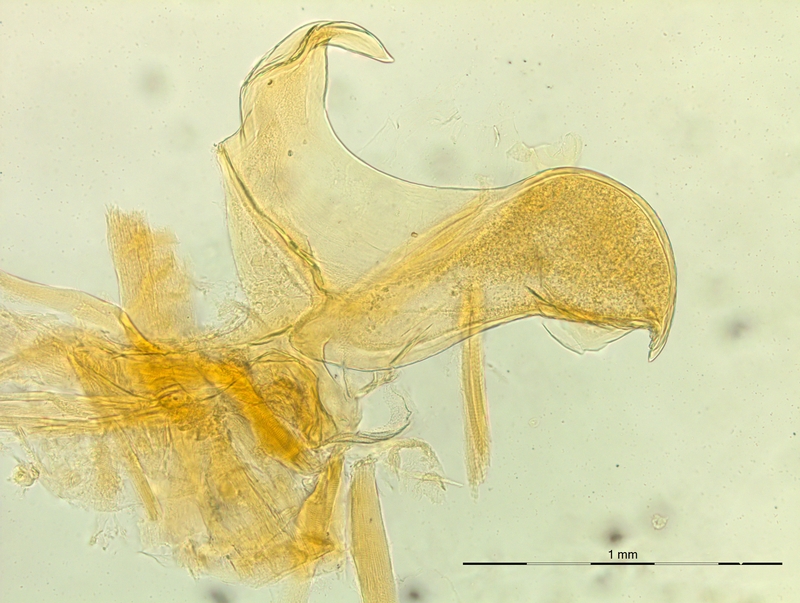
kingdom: Animalia
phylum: Arthropoda
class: Diplopoda
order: Chordeumatida
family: Craspedosomatidae
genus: Macheiriophoron
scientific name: Macheiriophoron alemannicum
